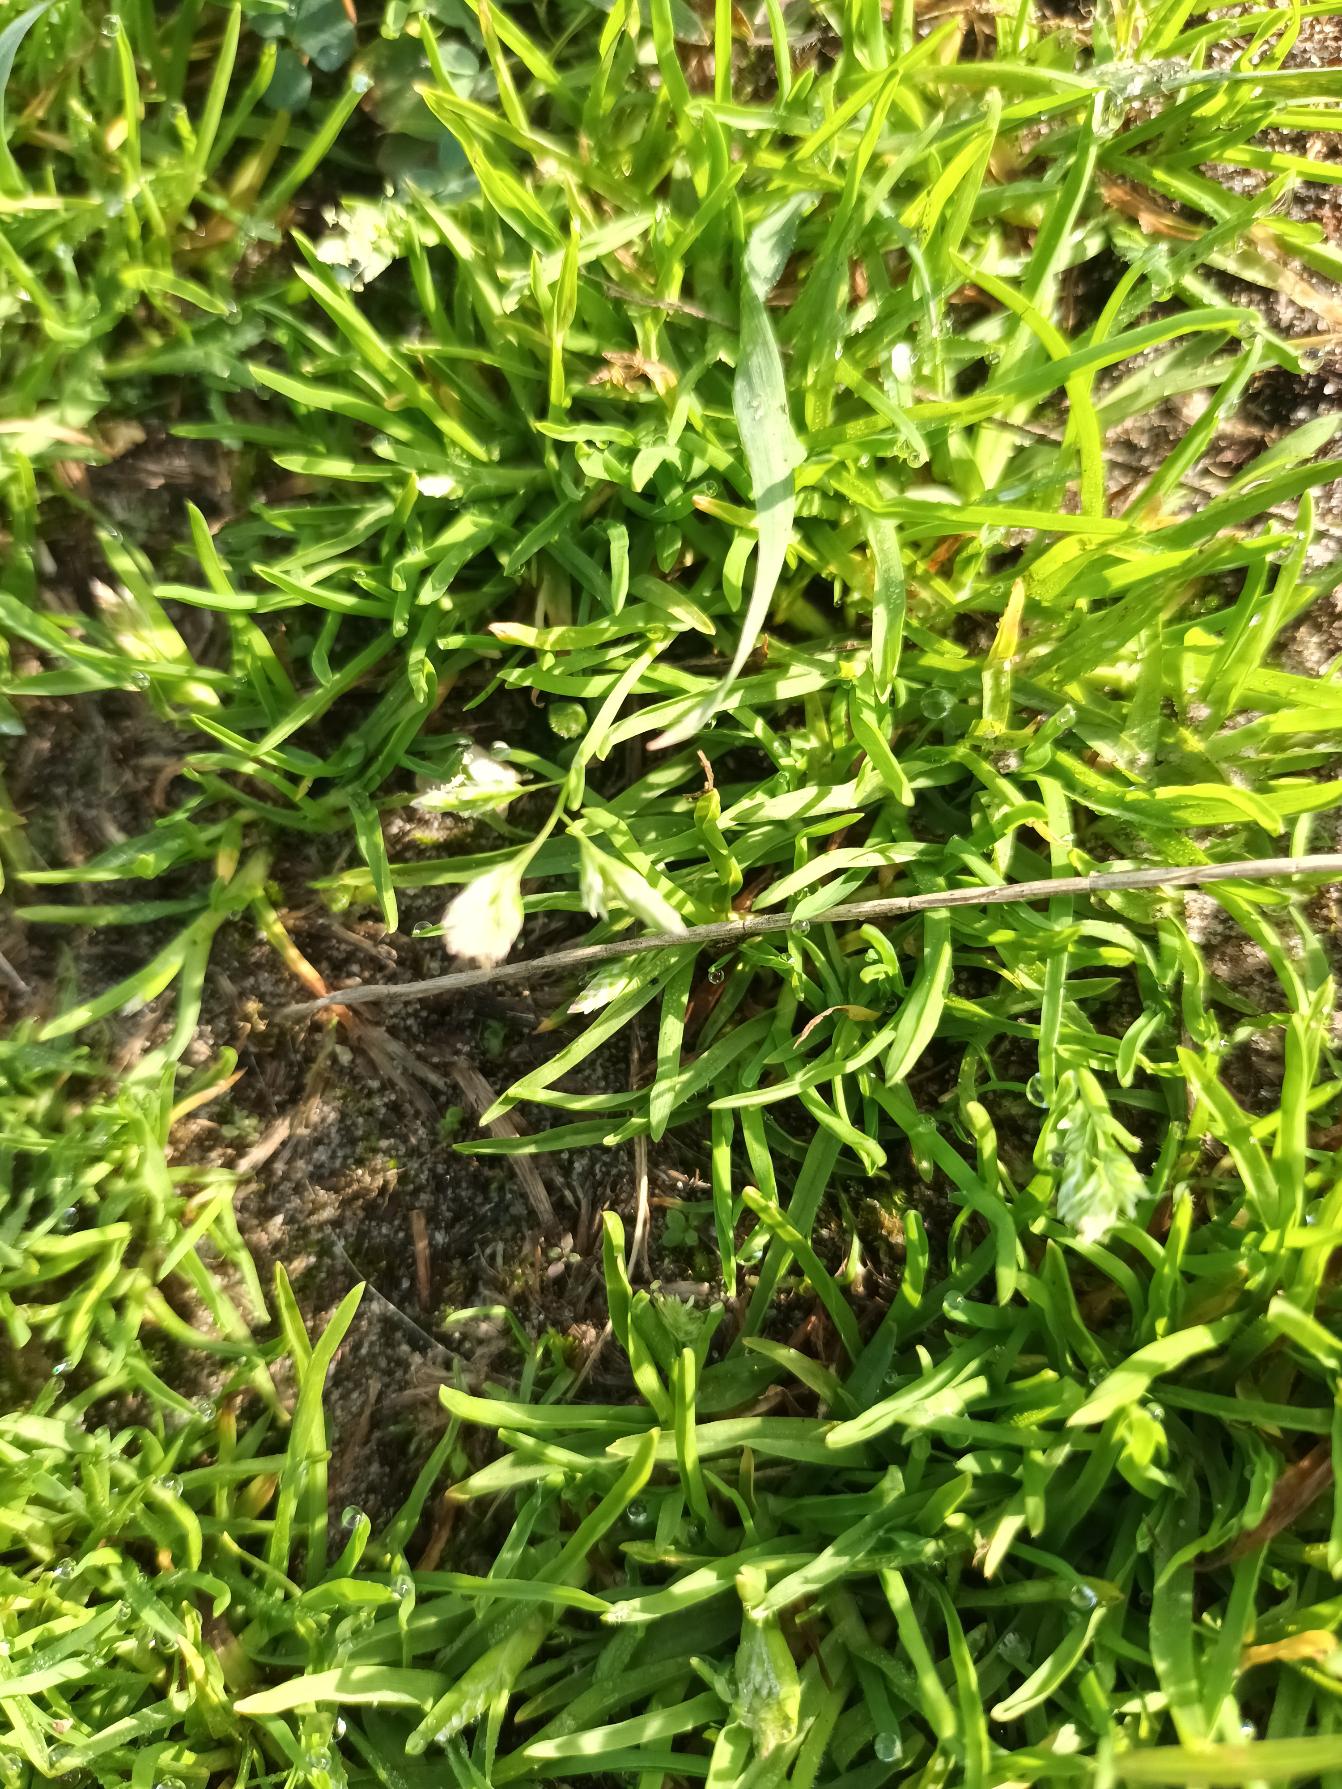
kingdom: Plantae
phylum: Tracheophyta
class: Liliopsida
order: Poales
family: Poaceae
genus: Poa
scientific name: Poa annua
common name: Enårig rapgræs
